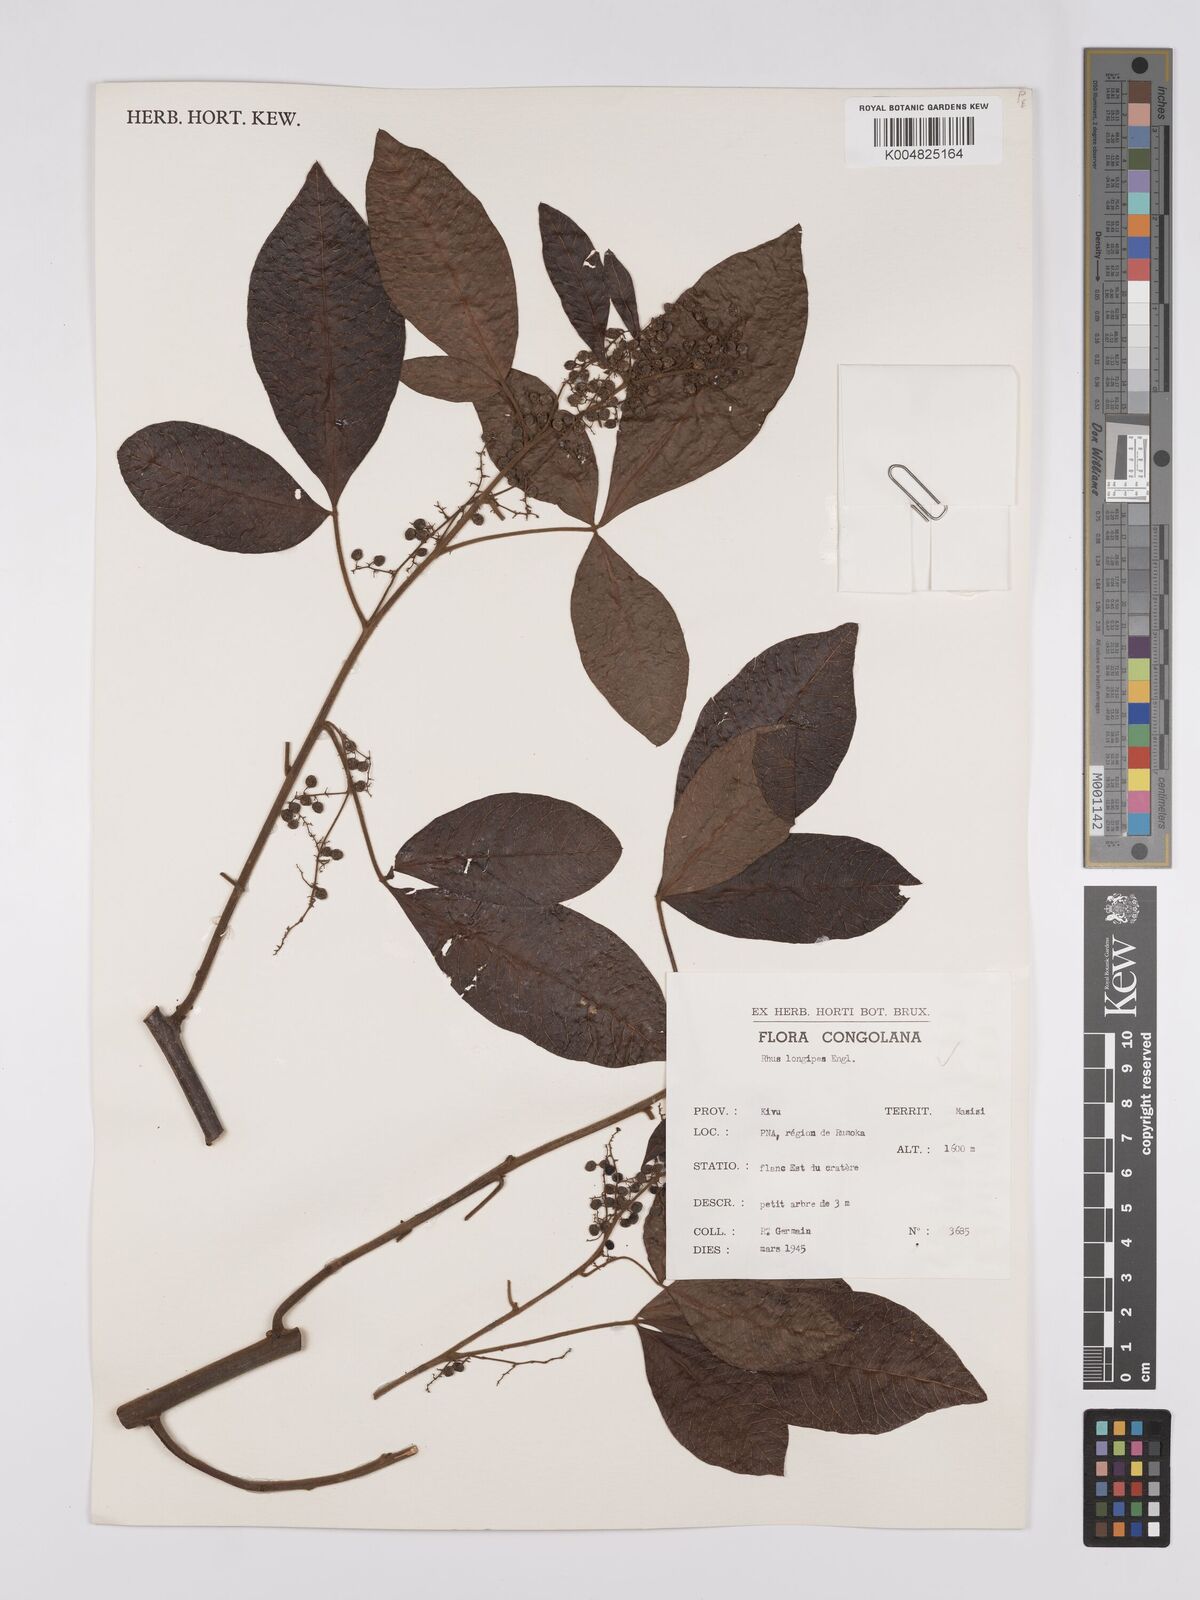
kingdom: Plantae
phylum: Tracheophyta
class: Magnoliopsida
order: Sapindales
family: Anacardiaceae
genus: Searsia
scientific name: Searsia longipes
